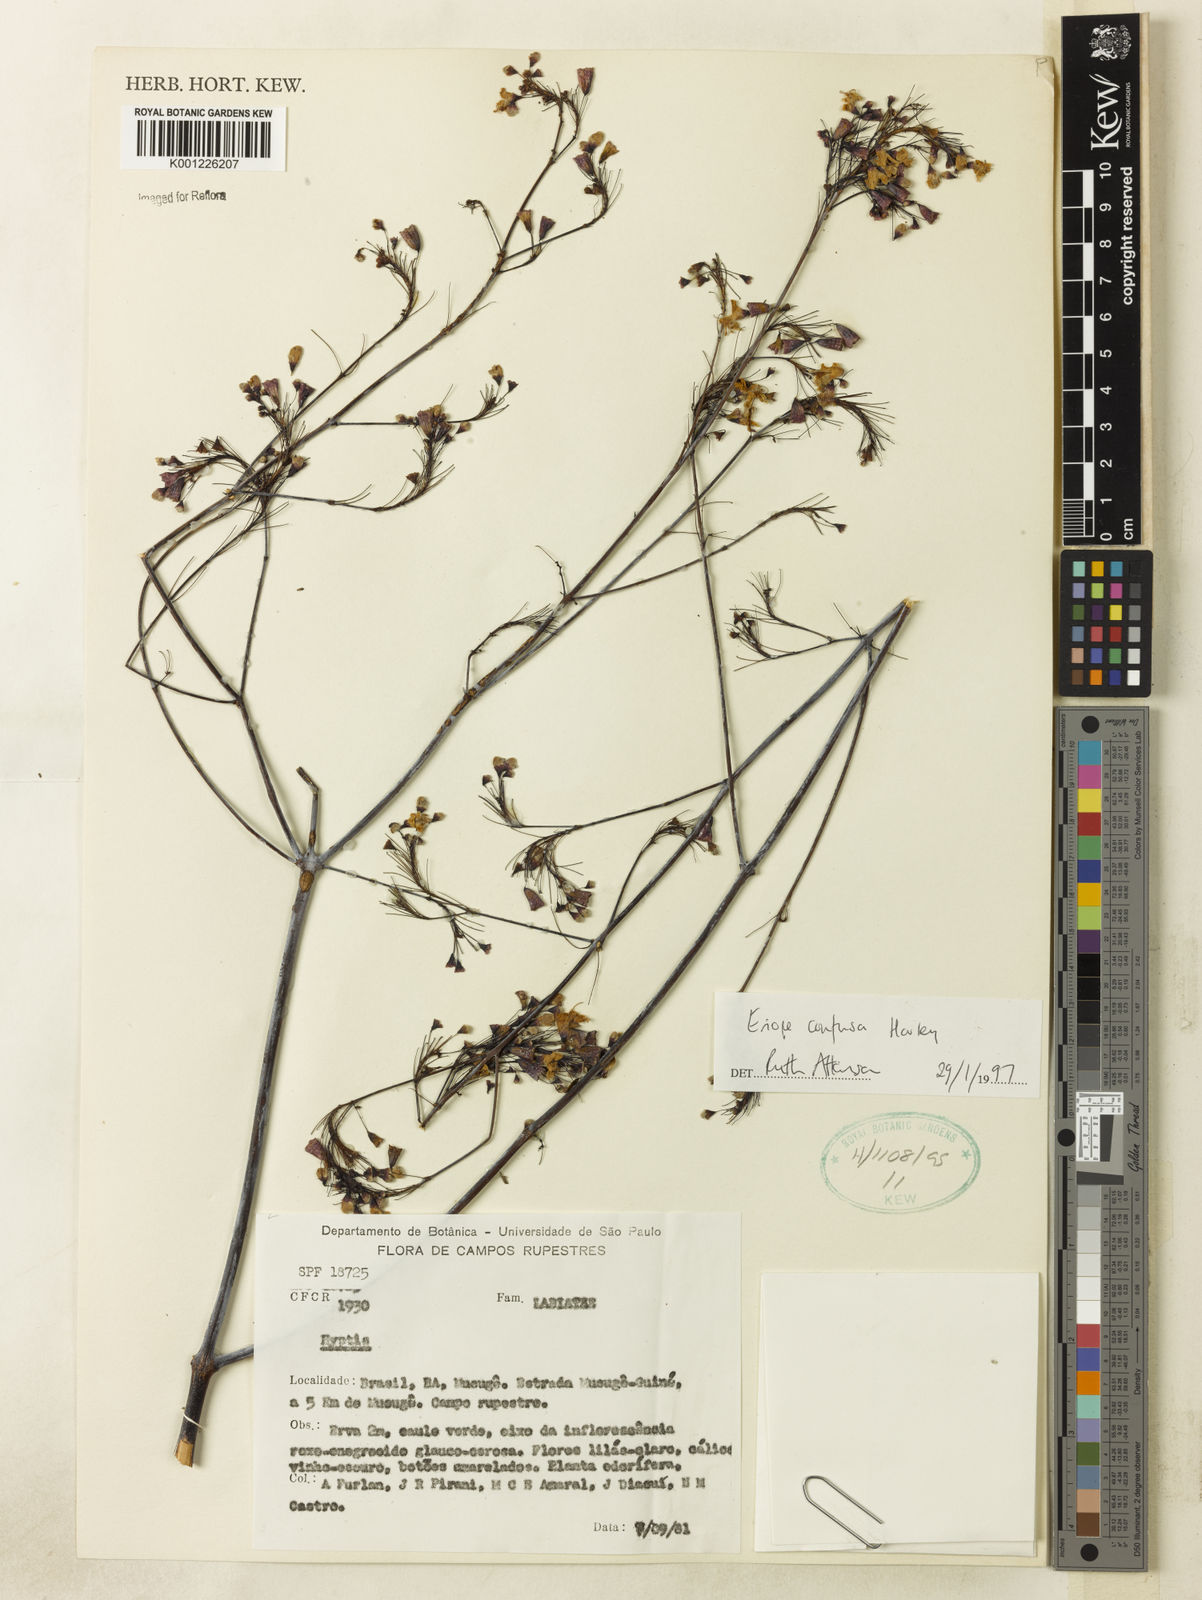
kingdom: Plantae
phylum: Tracheophyta
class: Magnoliopsida
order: Lamiales
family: Lamiaceae
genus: Eriope
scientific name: Eriope confusa
